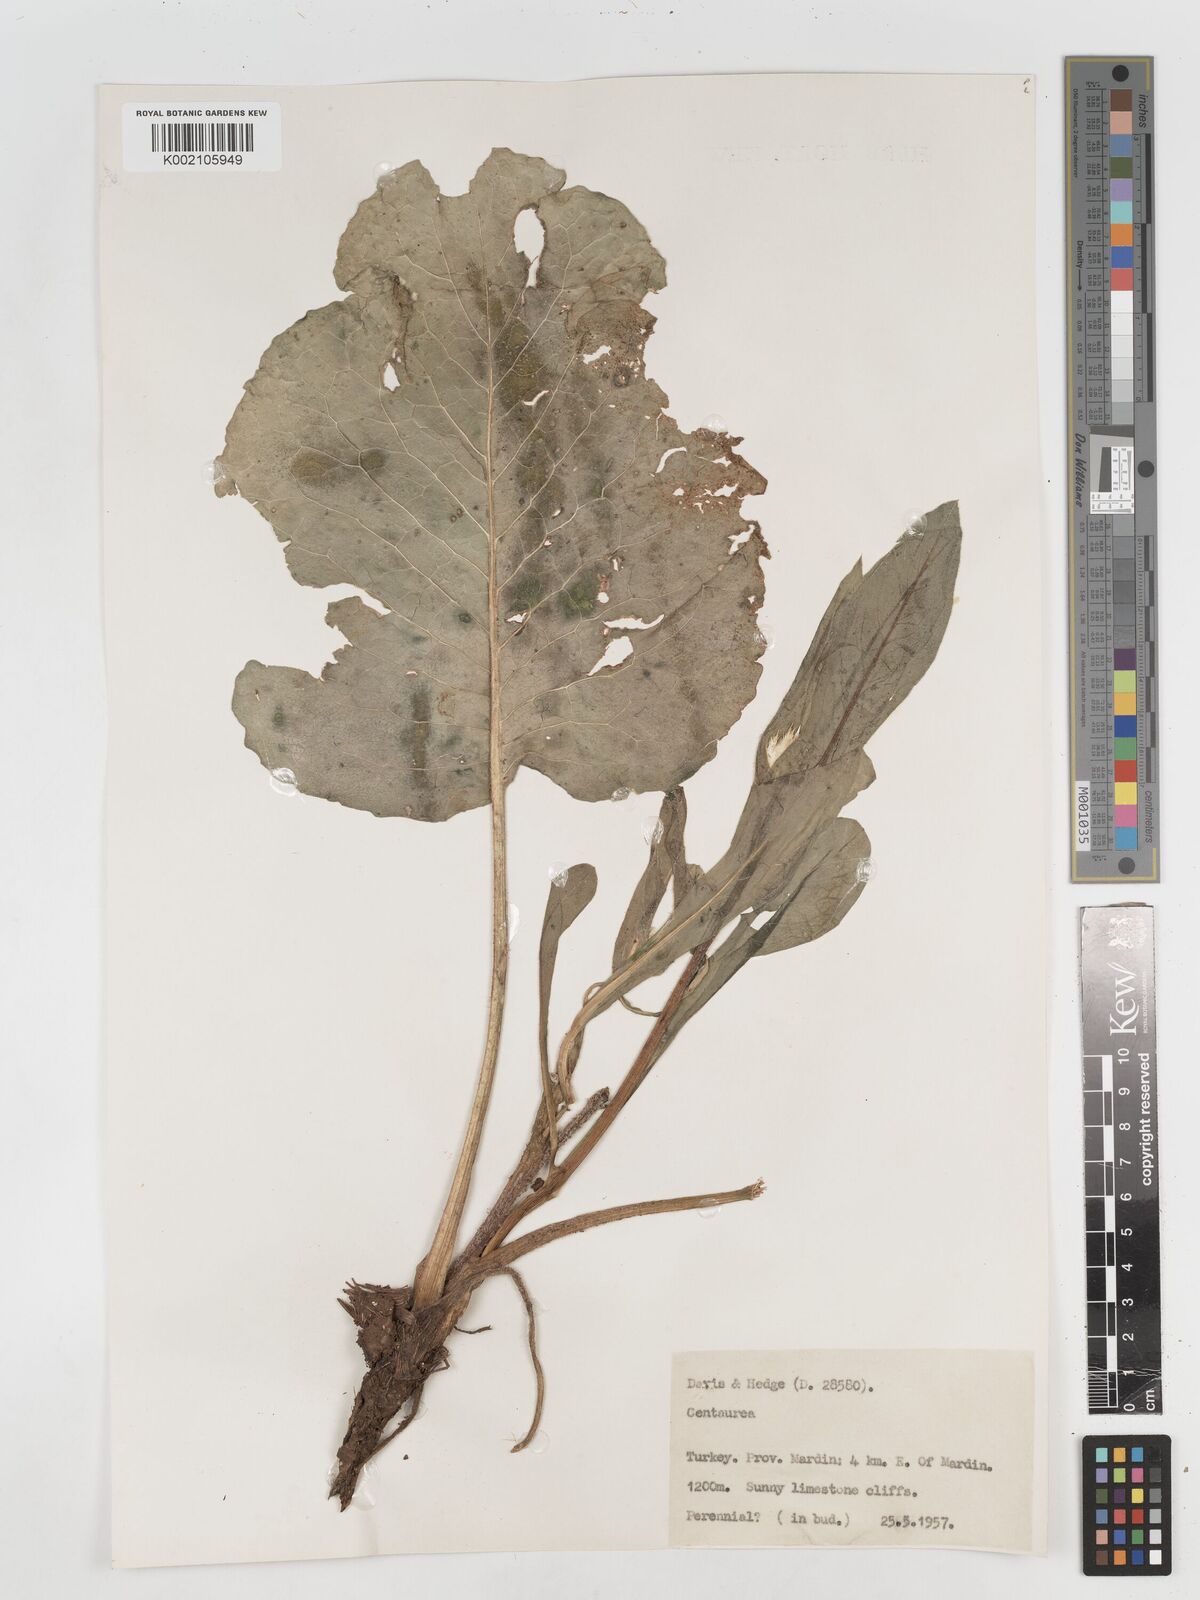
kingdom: Plantae
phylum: Tracheophyta
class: Magnoliopsida
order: Asterales
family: Asteraceae
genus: Centaurea
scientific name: Centaurea
